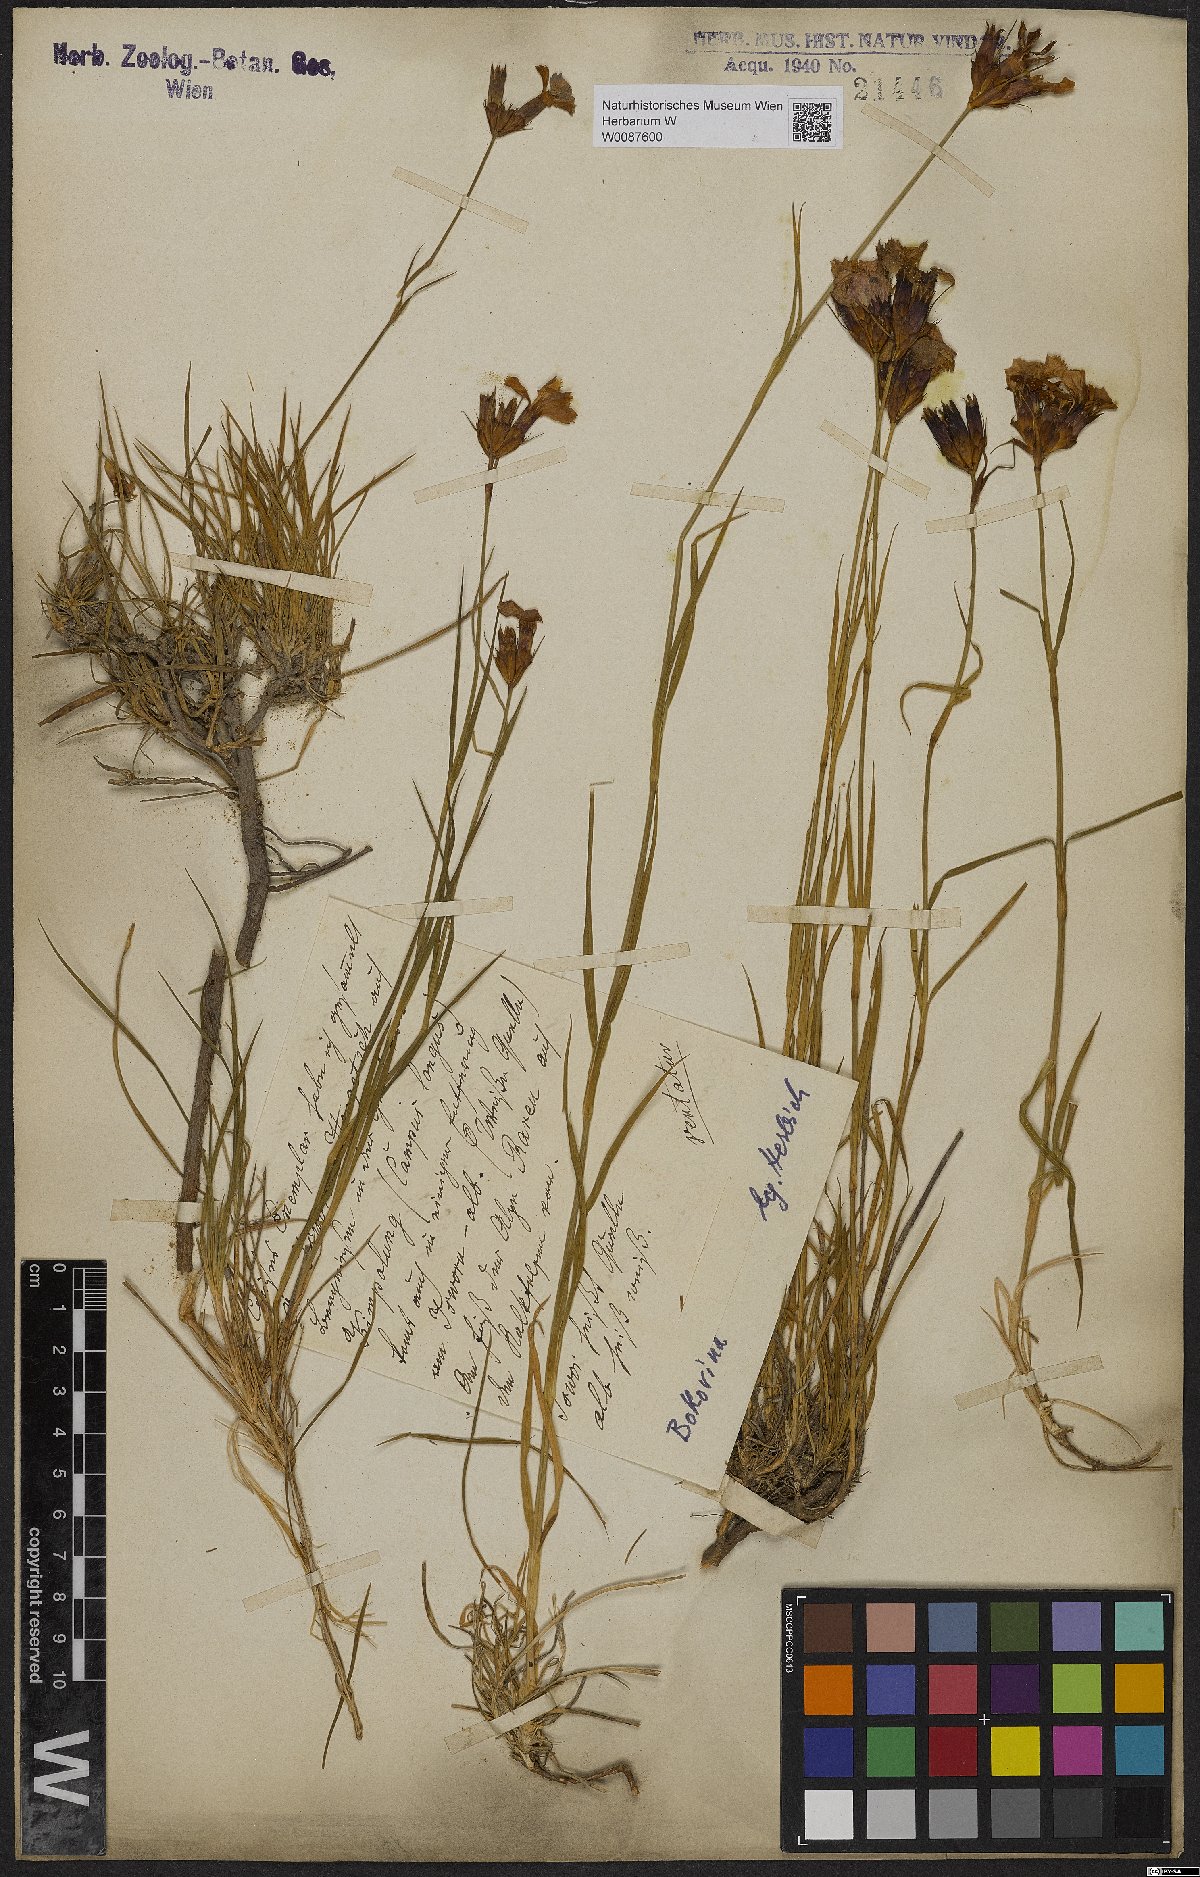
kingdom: Plantae
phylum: Tracheophyta
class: Magnoliopsida
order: Caryophyllales
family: Caryophyllaceae
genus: Dianthus
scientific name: Dianthus
